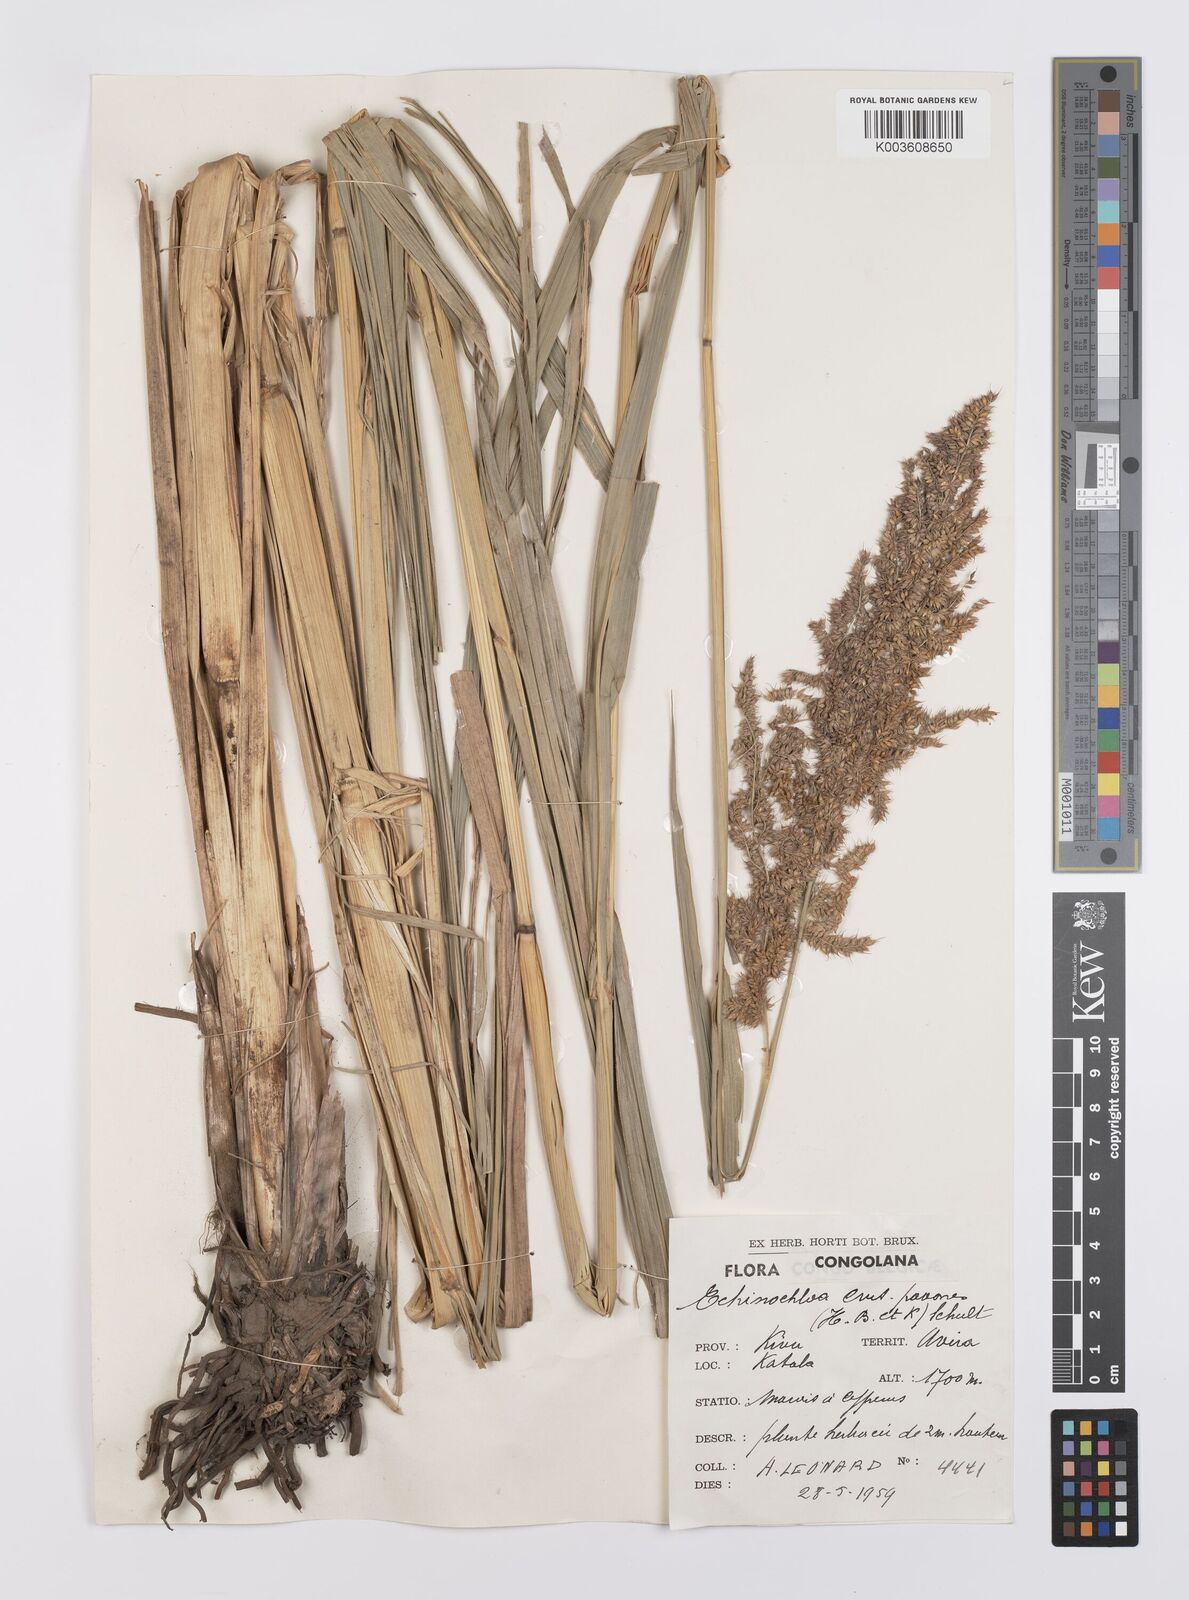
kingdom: Plantae
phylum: Tracheophyta
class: Liliopsida
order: Poales
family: Poaceae
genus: Echinochloa
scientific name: Echinochloa crus-pavonis
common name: Gulf cockspur grass
